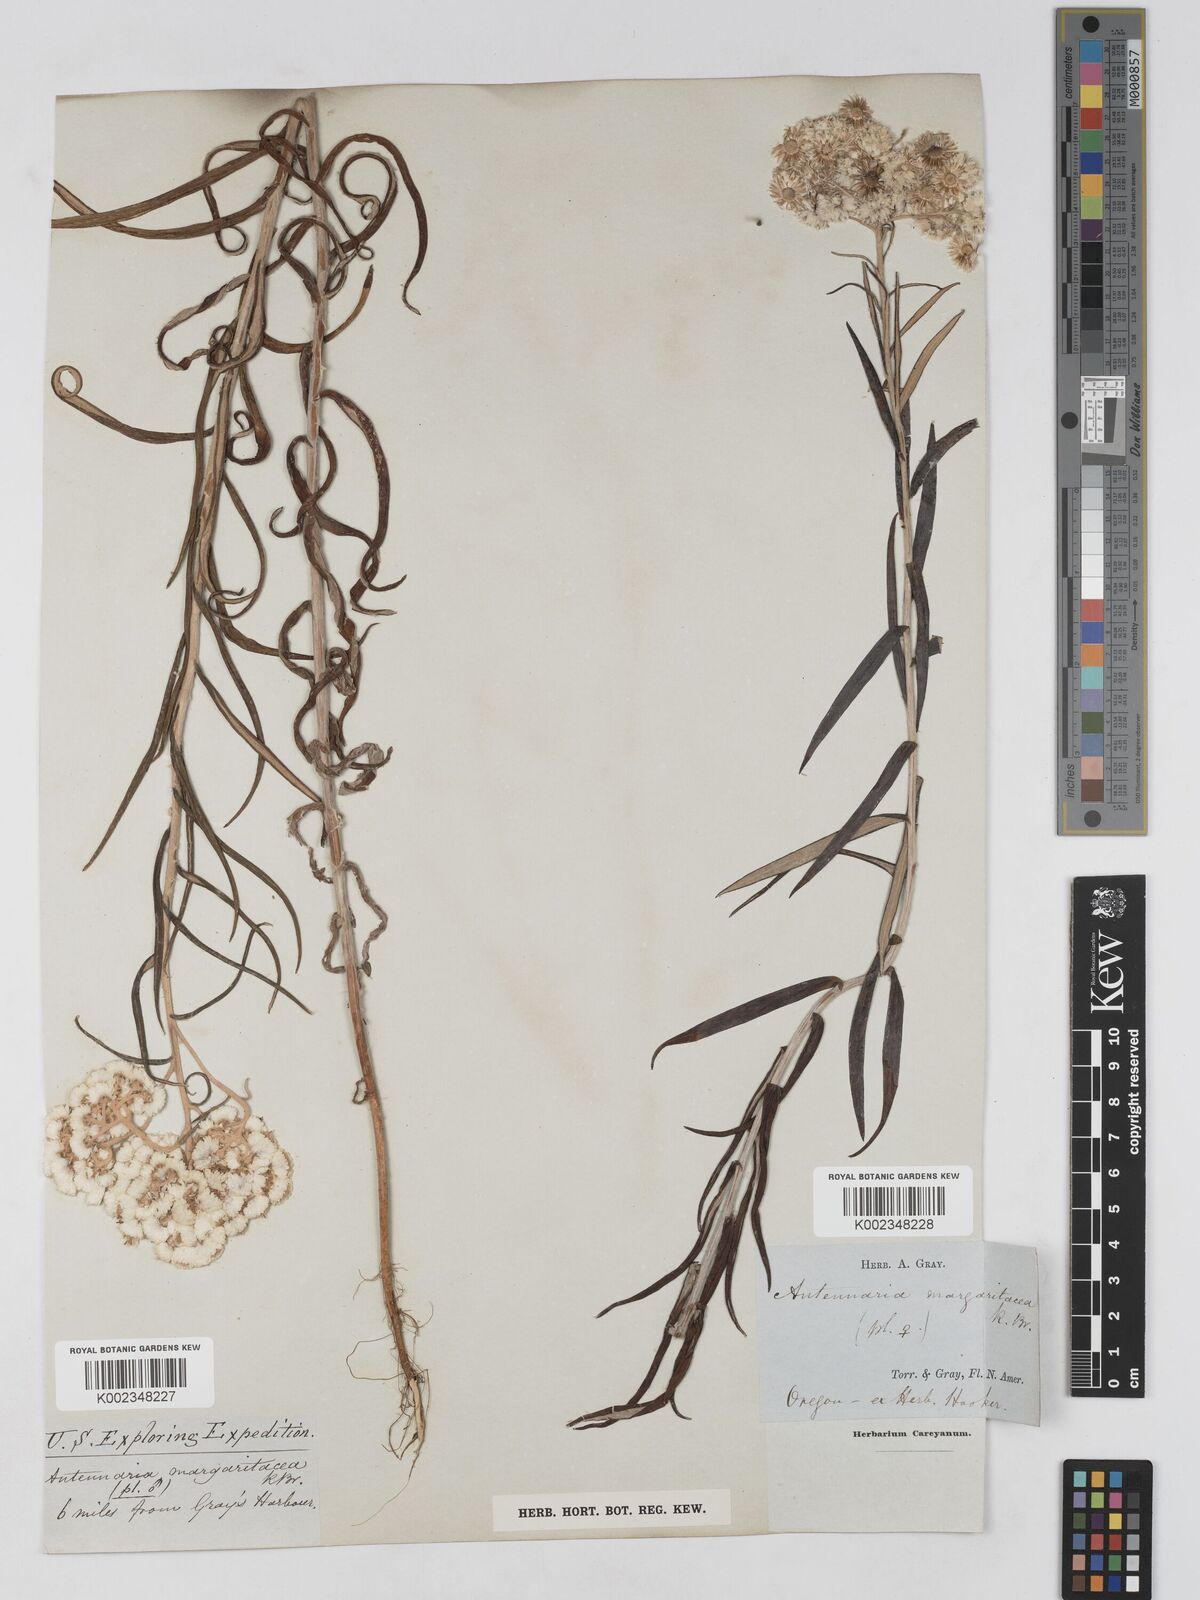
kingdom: Plantae
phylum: Tracheophyta
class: Magnoliopsida
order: Asterales
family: Asteraceae
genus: Anaphalis
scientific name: Anaphalis margaritacea
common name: Pearly everlasting
